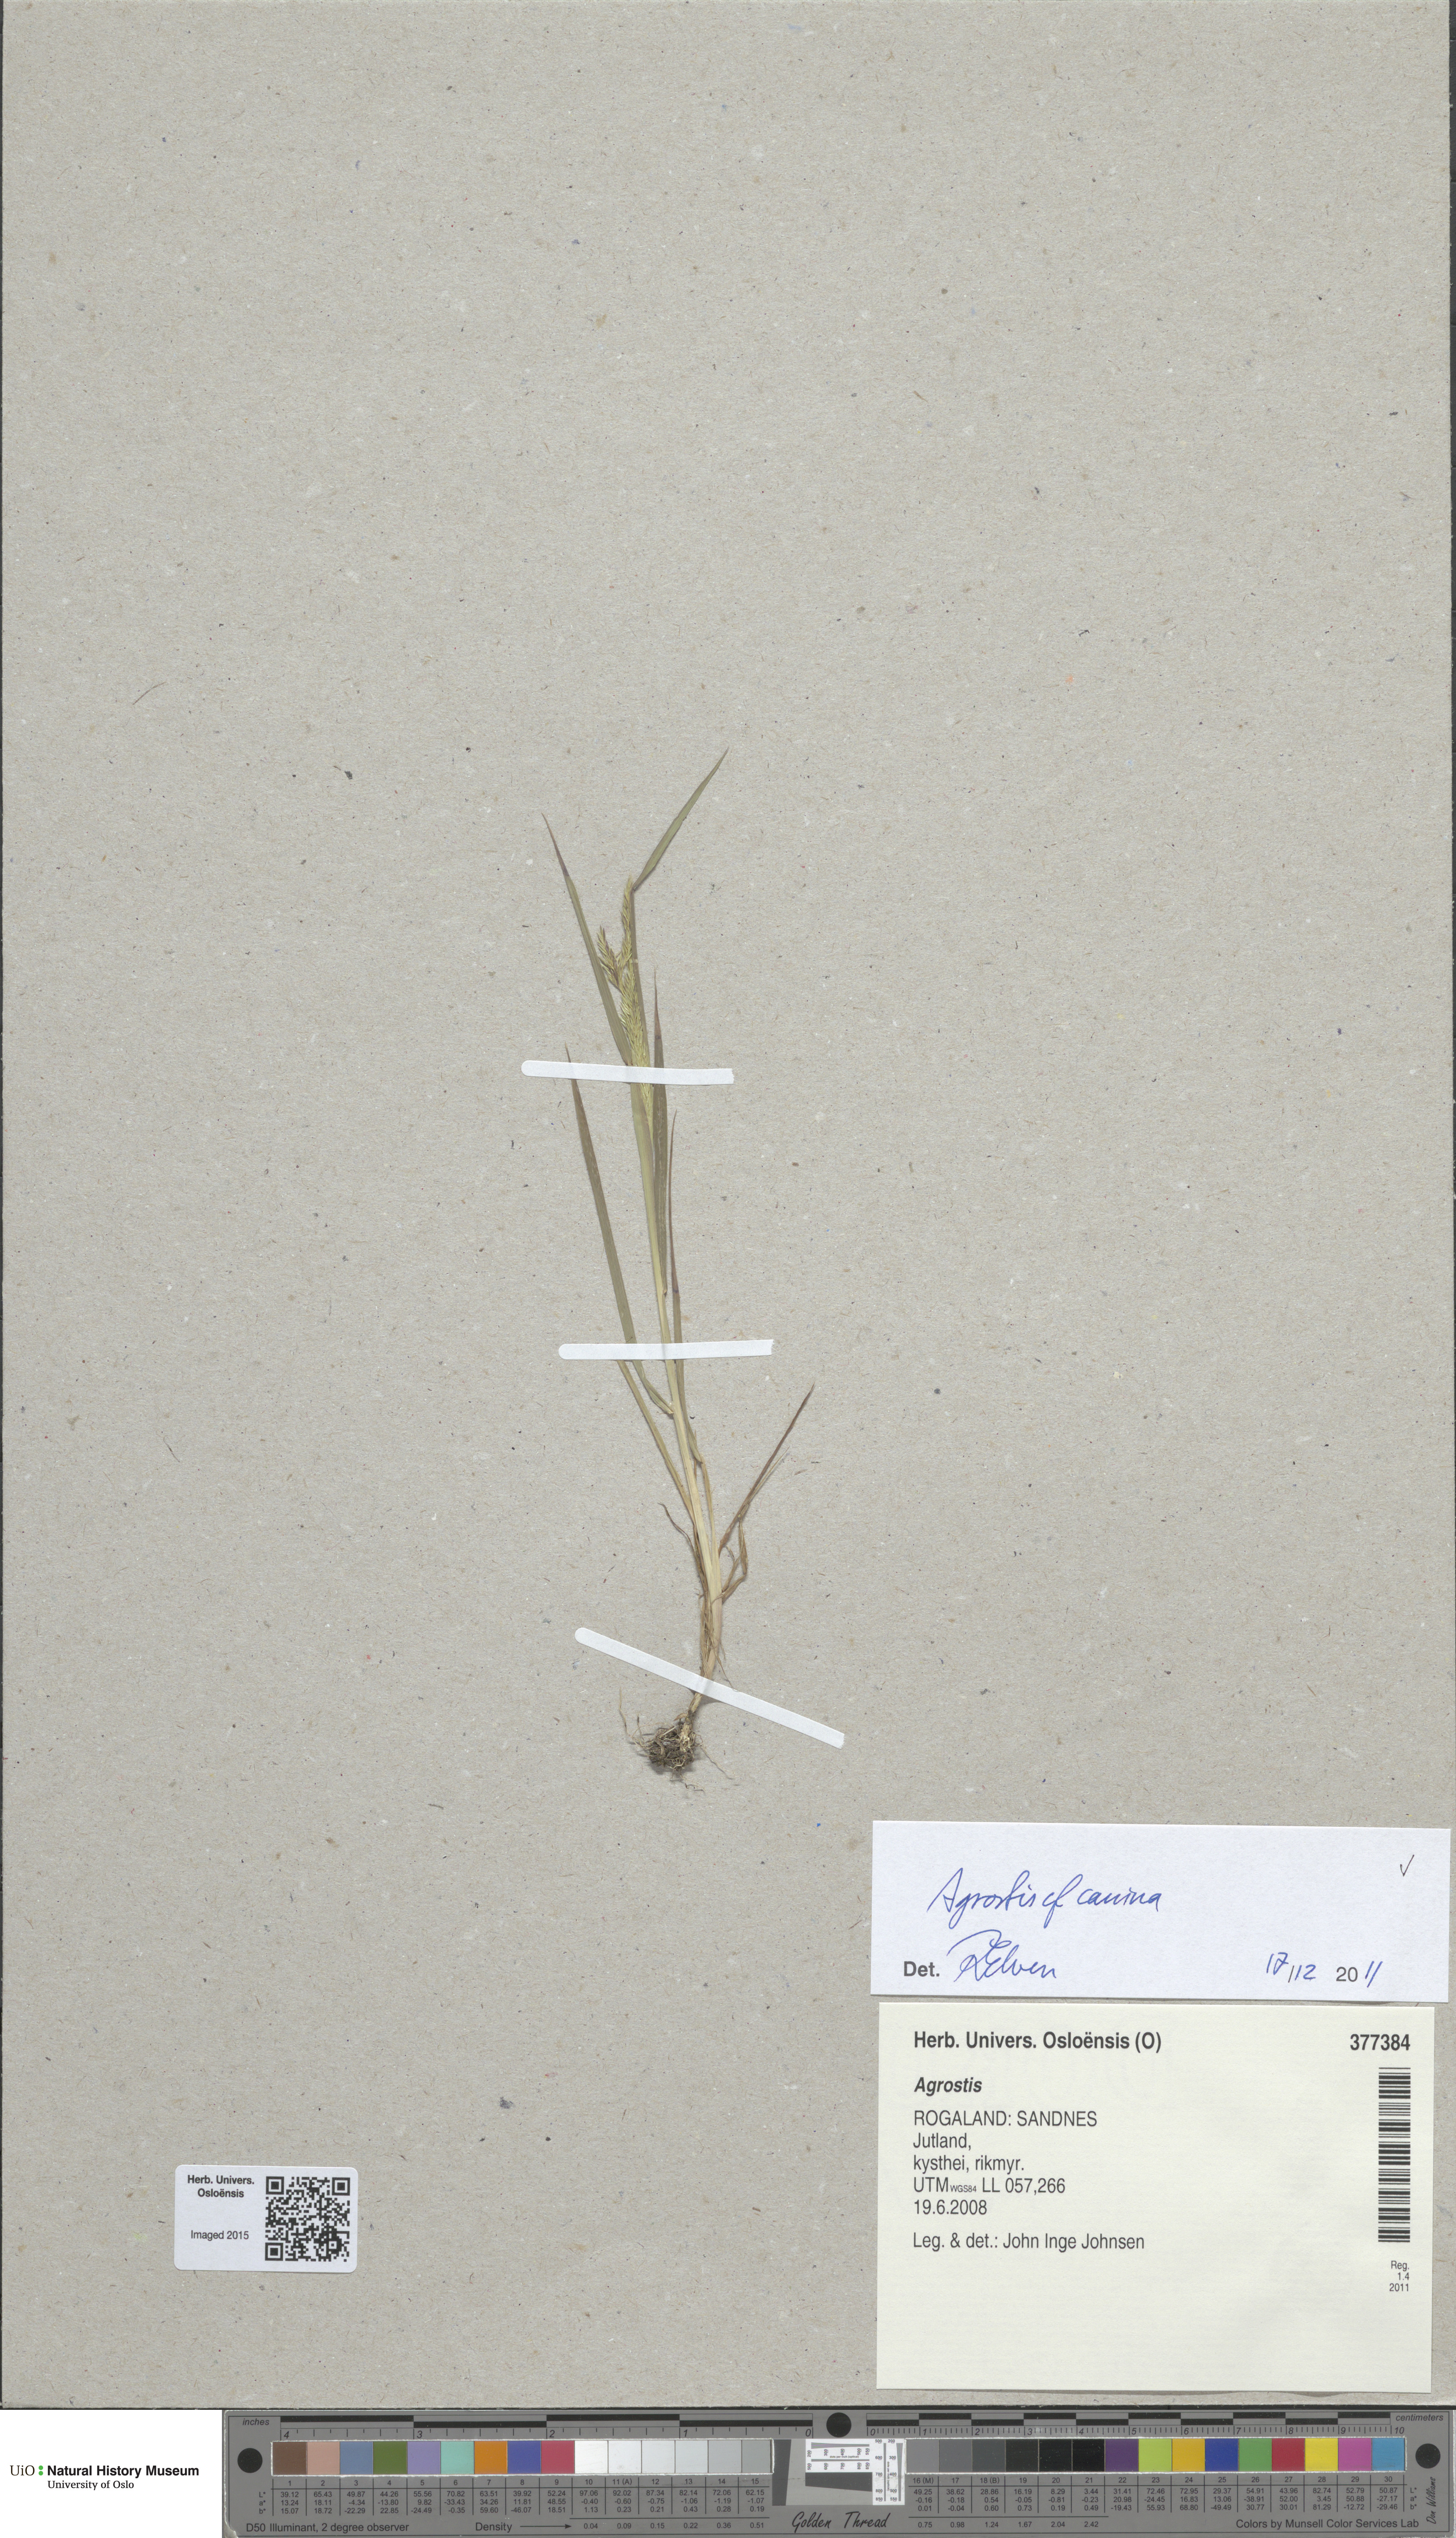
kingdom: Plantae
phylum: Tracheophyta
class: Liliopsida
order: Poales
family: Poaceae
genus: Agrostis
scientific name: Agrostis canina
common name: Velvet bent
